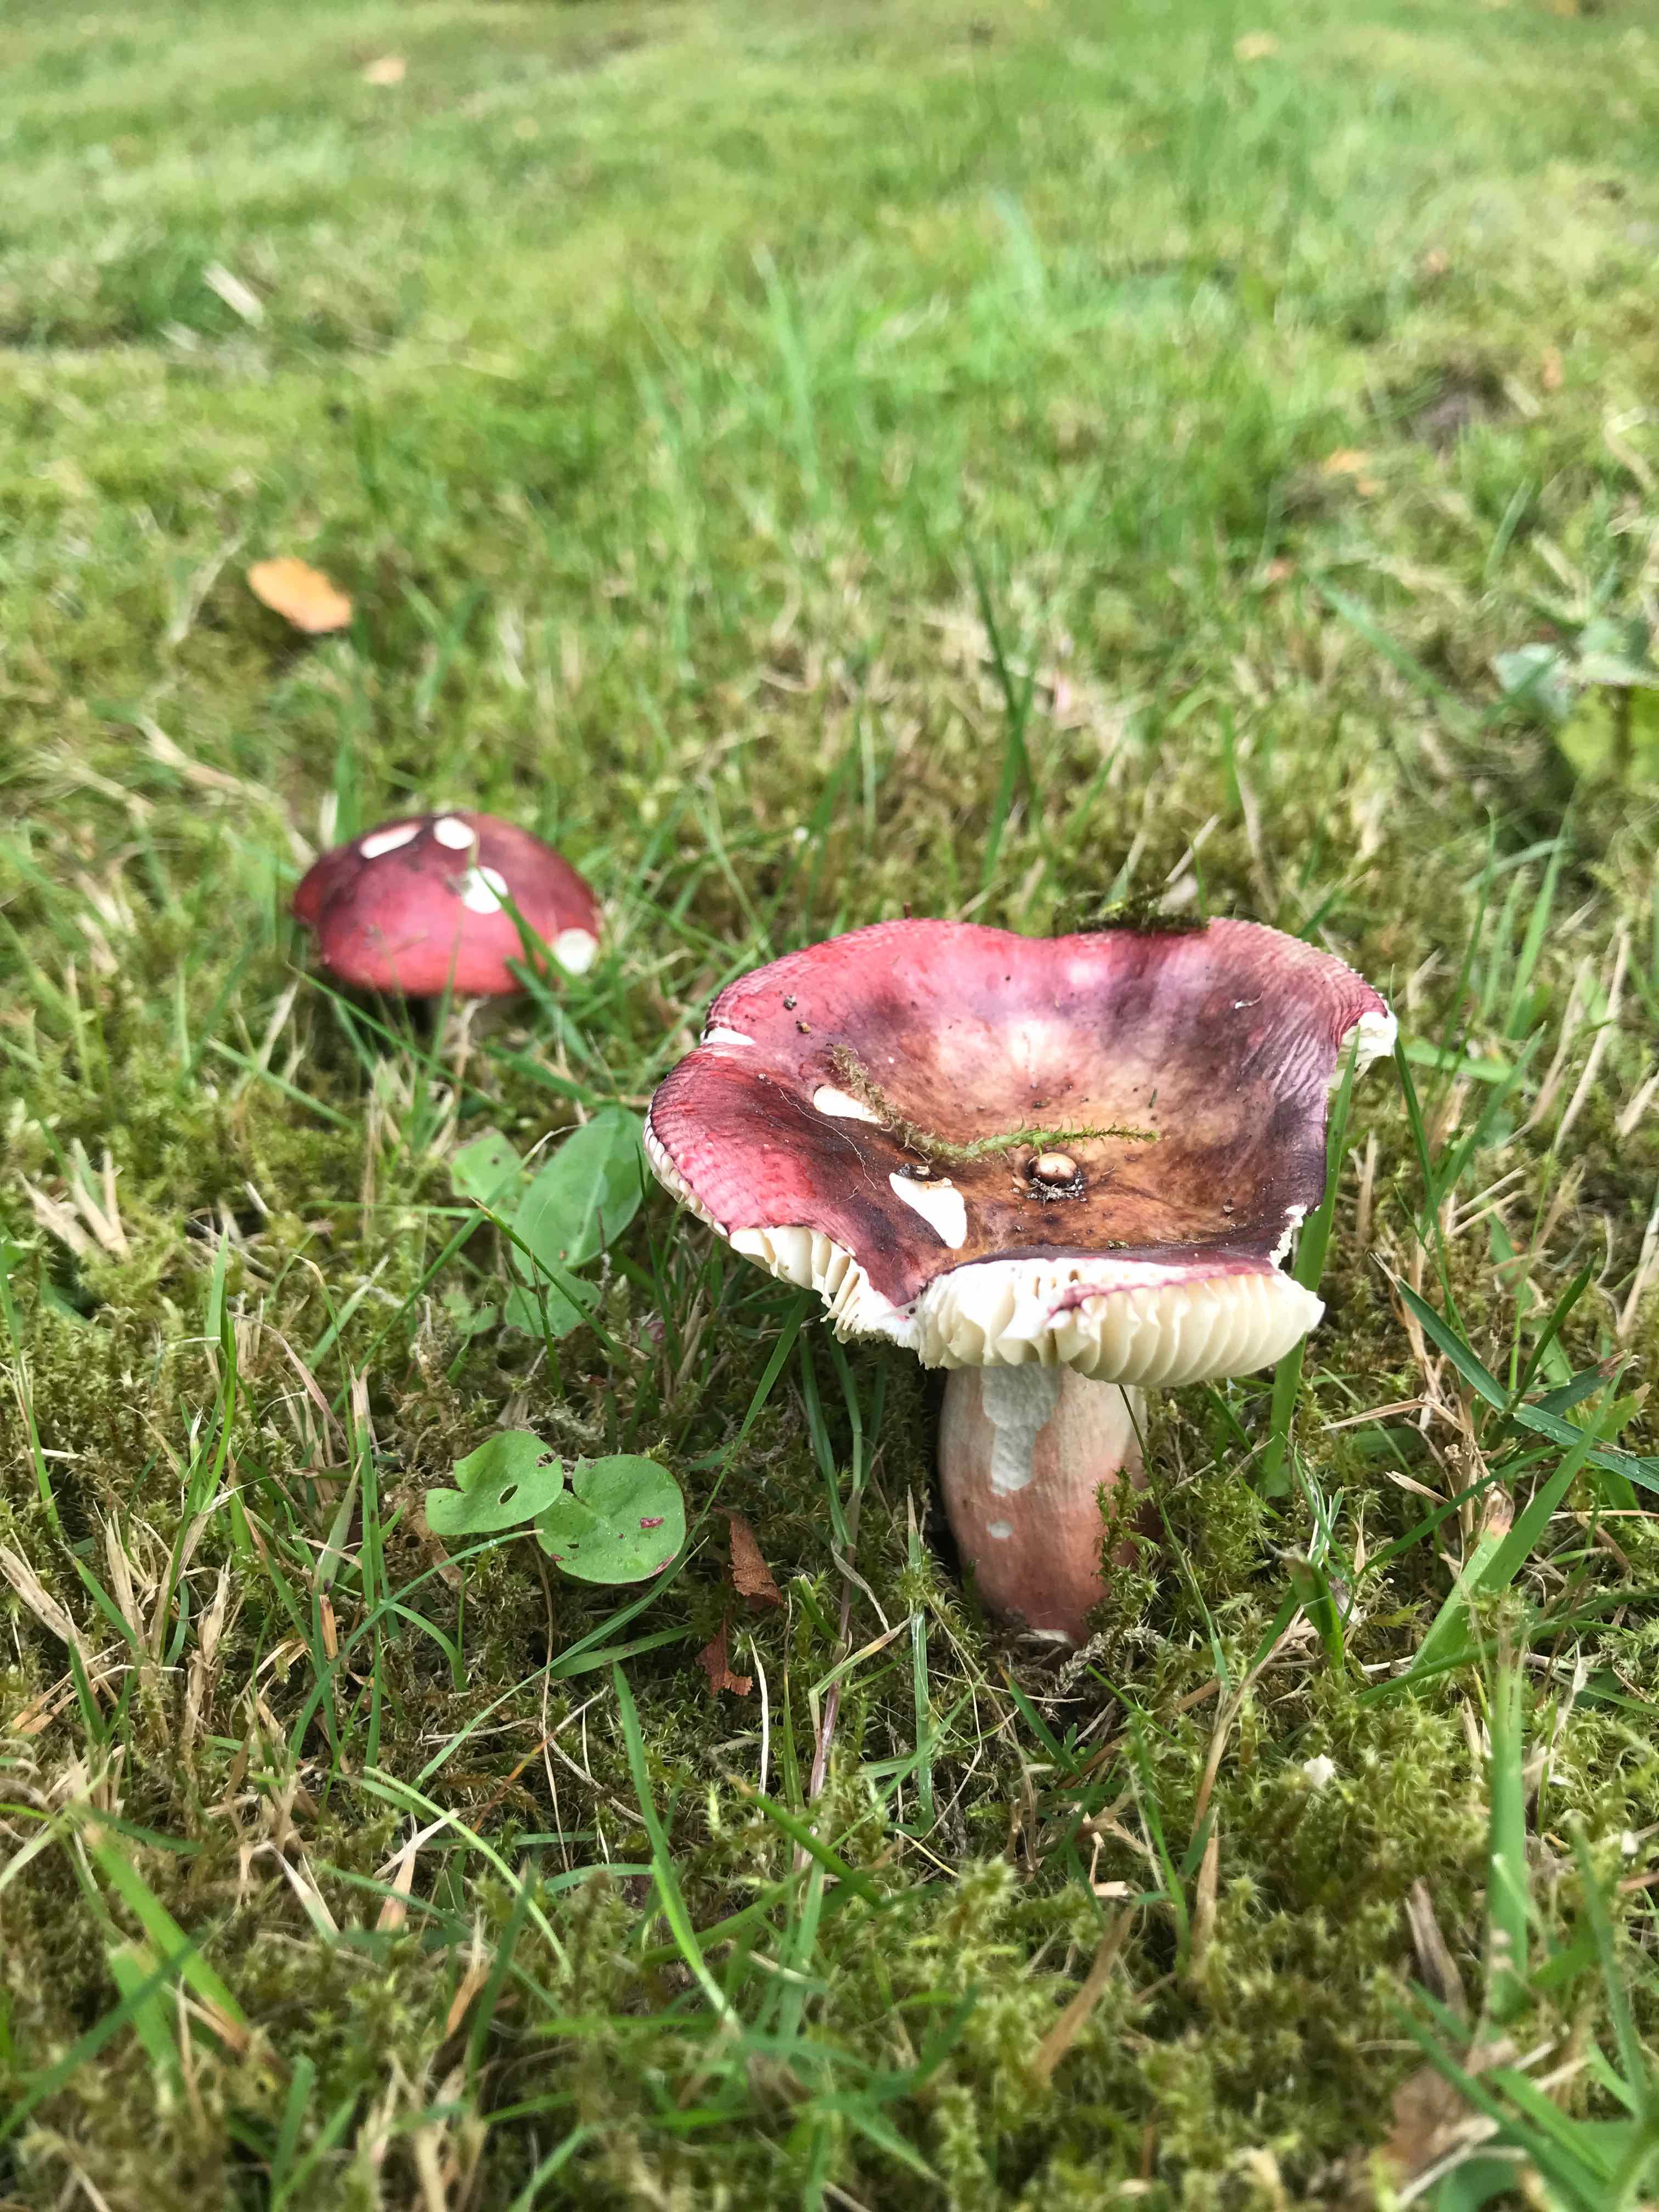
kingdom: Fungi
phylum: Basidiomycota
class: Agaricomycetes
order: Russulales
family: Russulaceae
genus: Russula
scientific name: Russula
